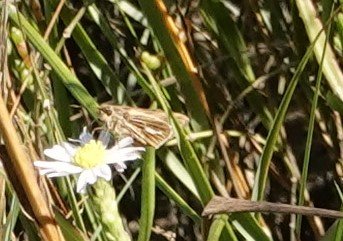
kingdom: Animalia
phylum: Arthropoda
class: Insecta
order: Lepidoptera
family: Hesperiidae
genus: Panoquina
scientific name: Panoquina panoquin
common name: Salt Marsh Skipper
